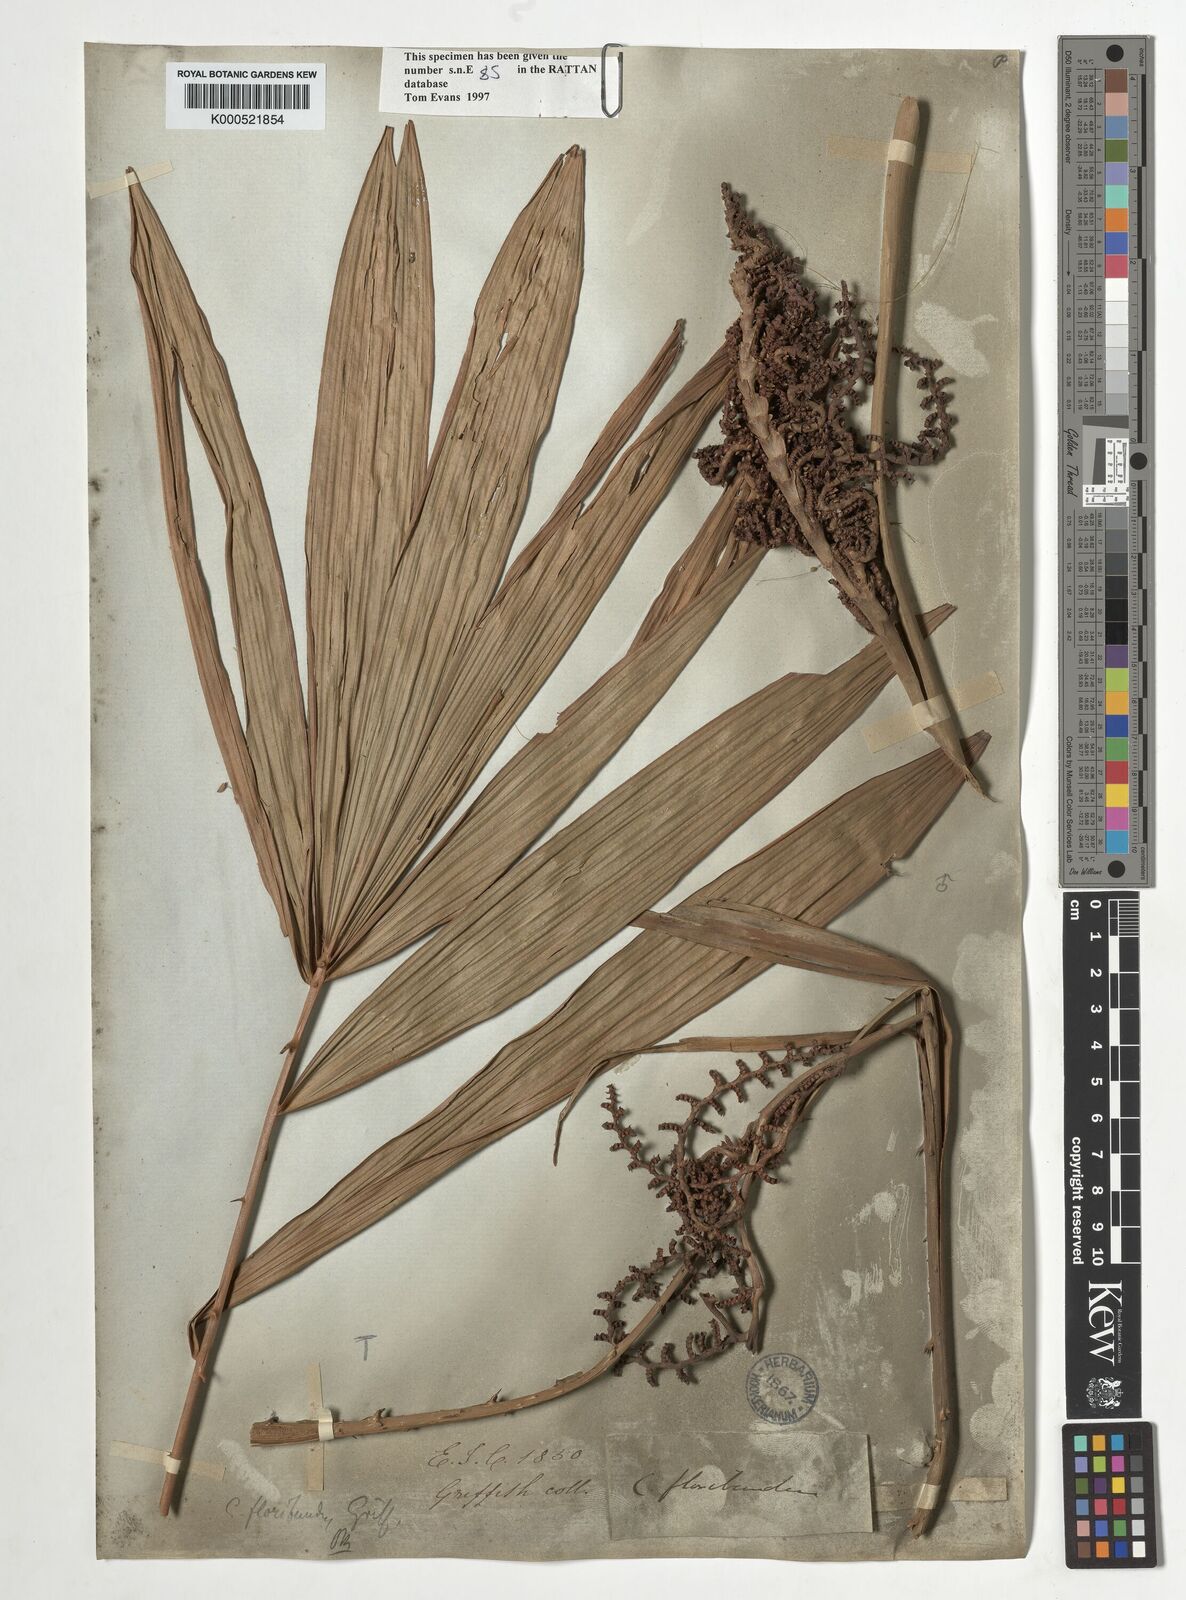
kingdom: Plantae
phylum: Tracheophyta
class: Liliopsida
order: Arecales
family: Arecaceae
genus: Calamus
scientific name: Calamus floribundus
